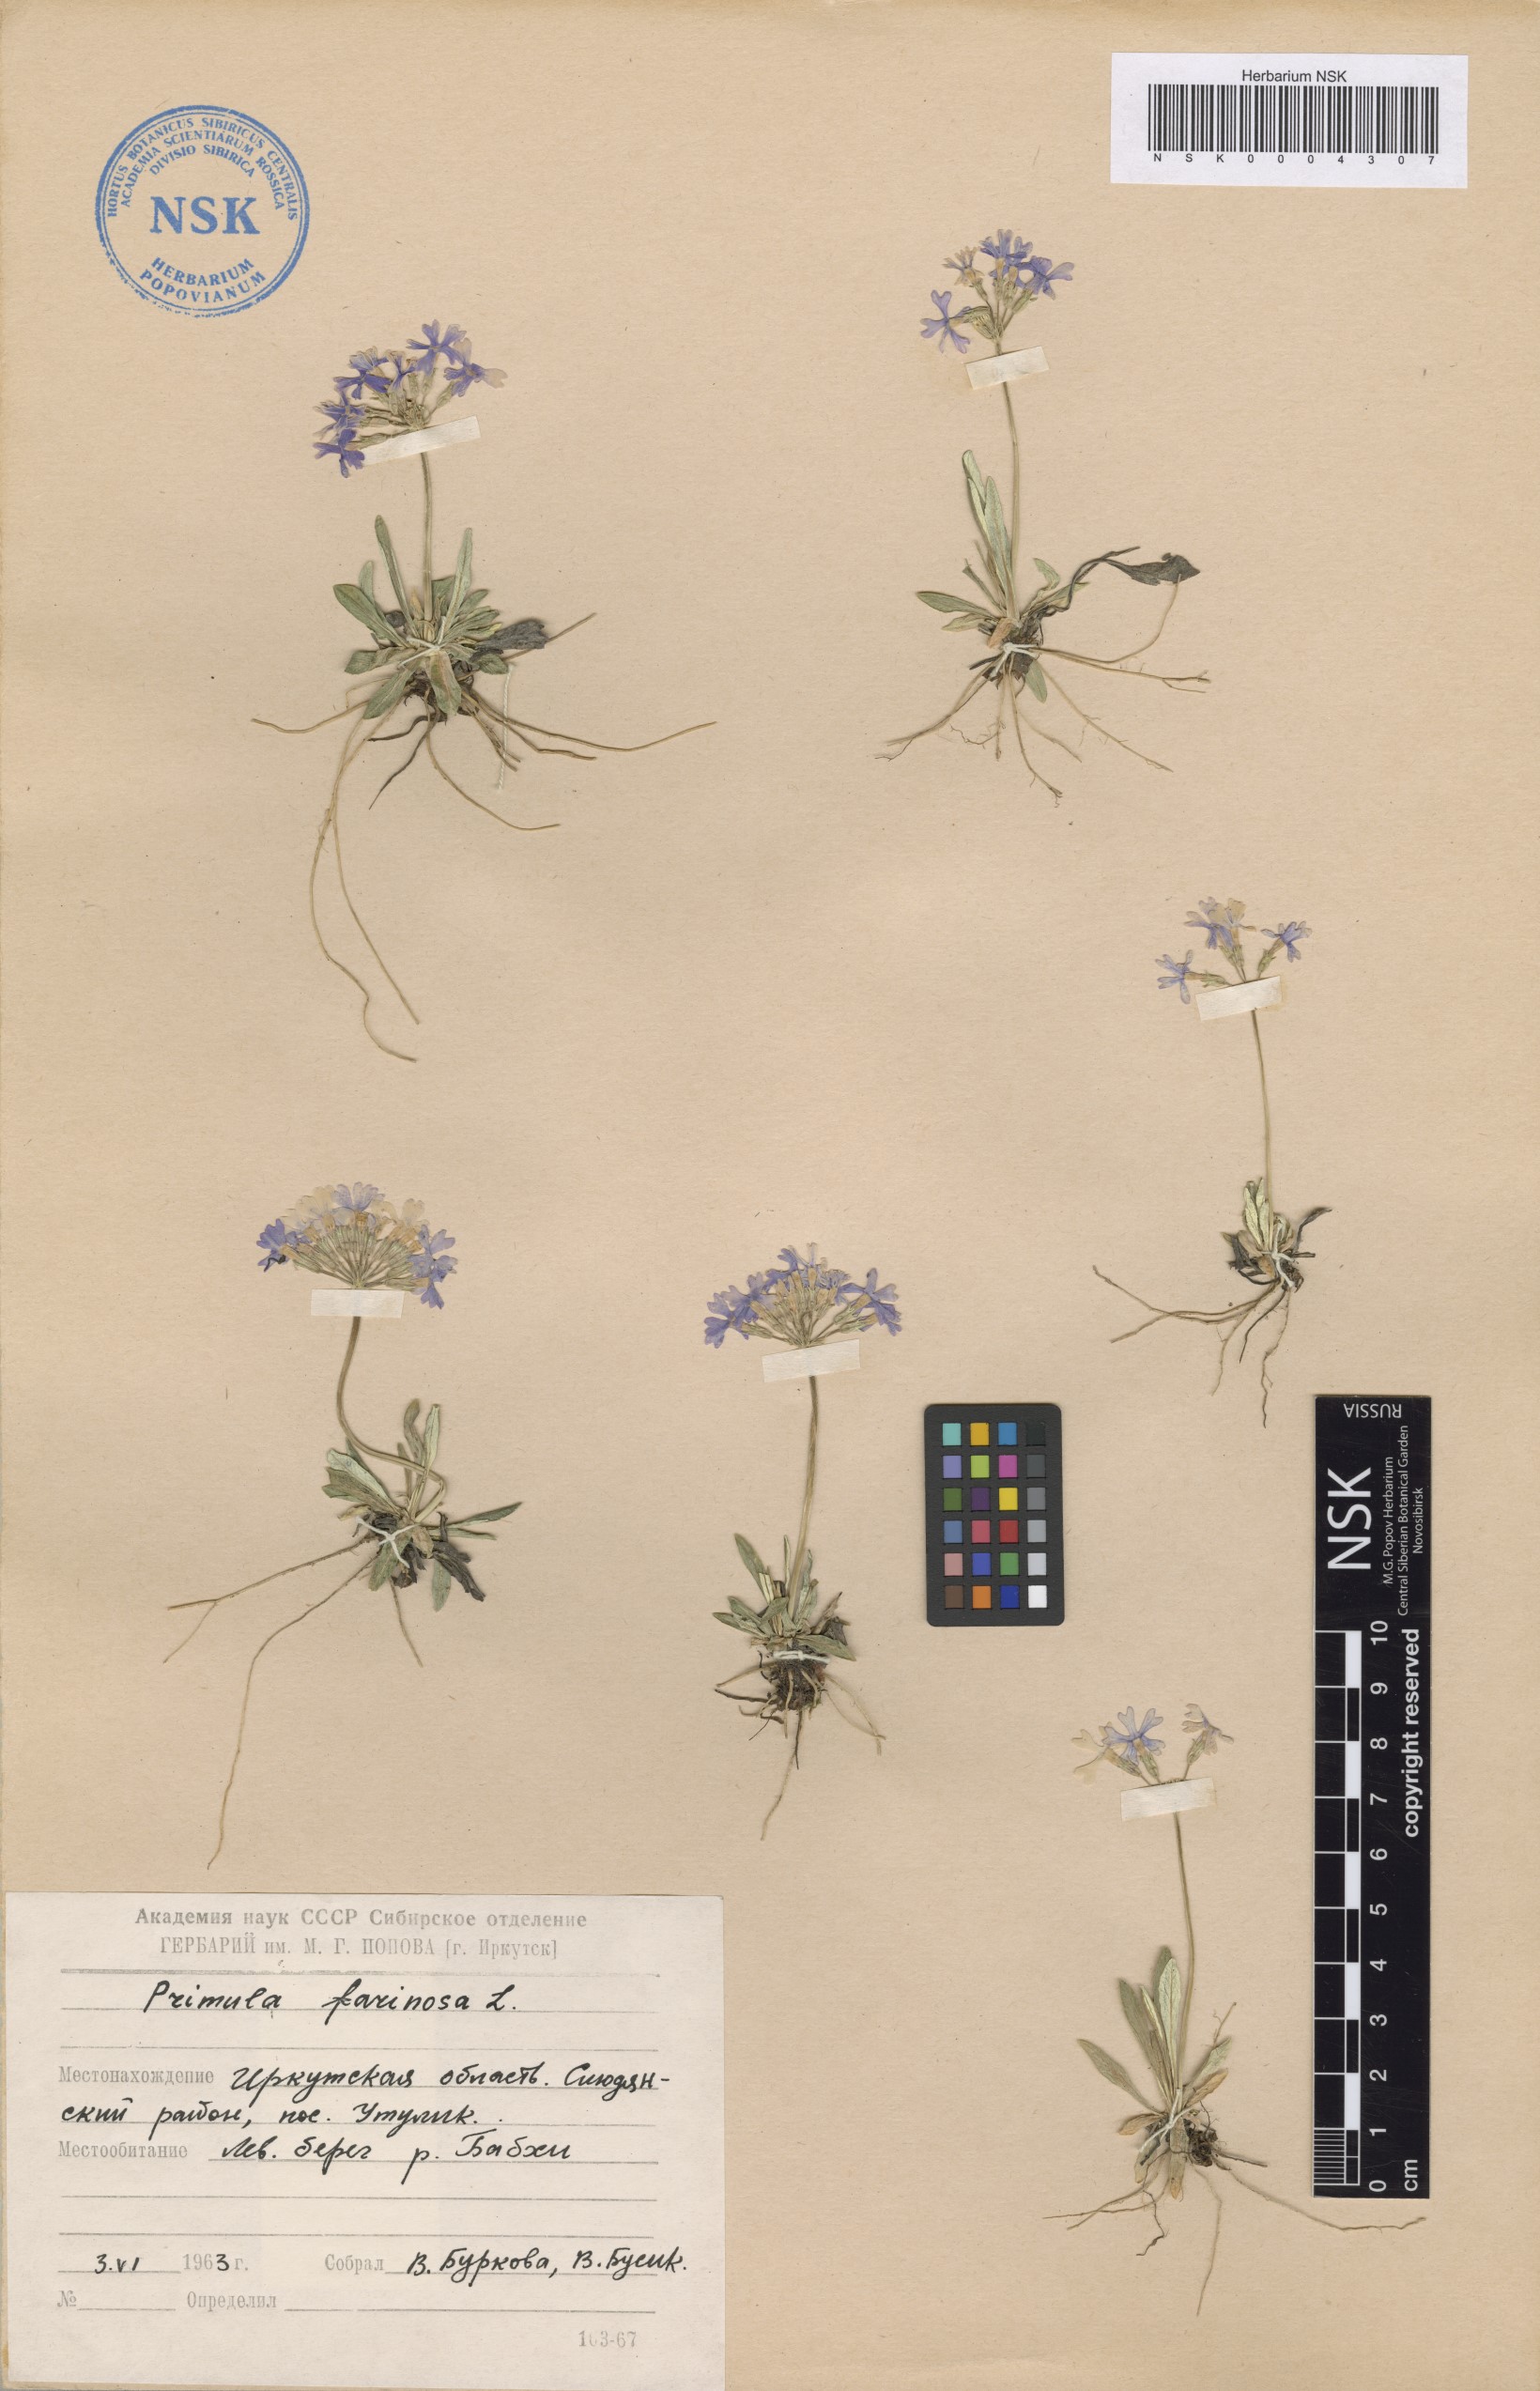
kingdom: Plantae
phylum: Tracheophyta
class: Magnoliopsida
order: Ericales
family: Primulaceae
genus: Primula
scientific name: Primula farinosa
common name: Bird's-eye primrose
